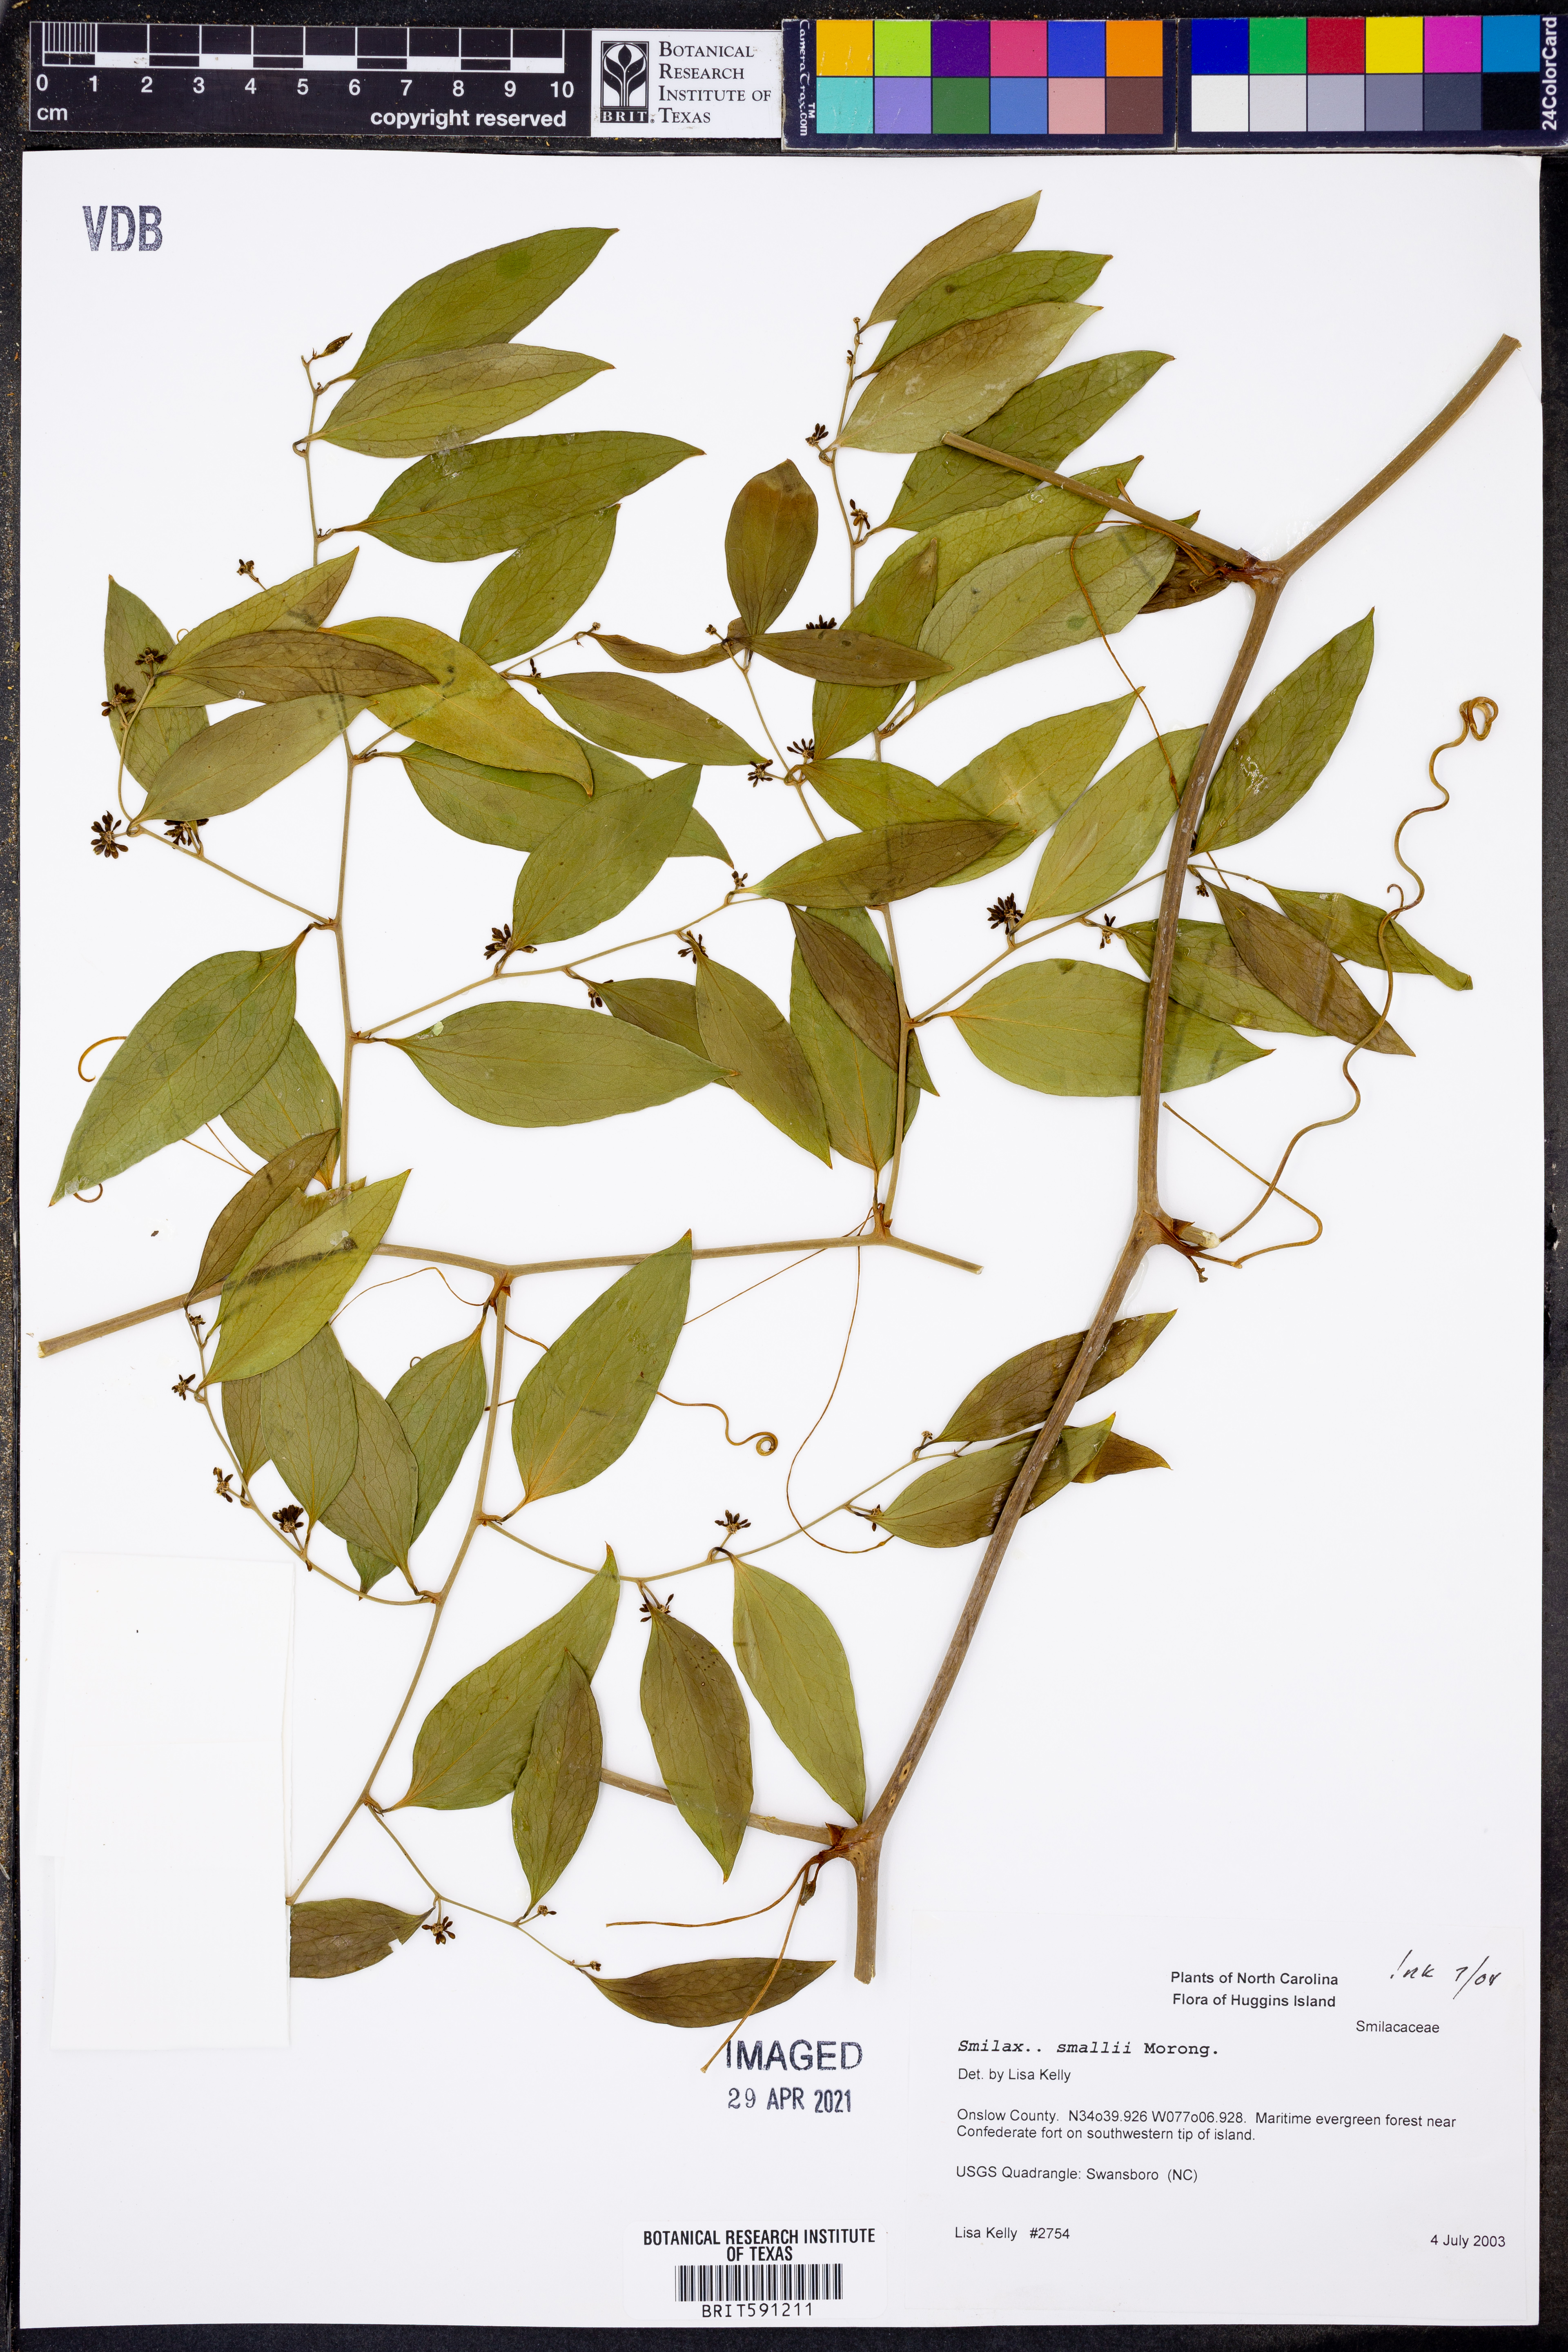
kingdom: Plantae
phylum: Tracheophyta
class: Liliopsida
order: Liliales
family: Smilacaceae
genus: Smilax
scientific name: Smilax maritima
